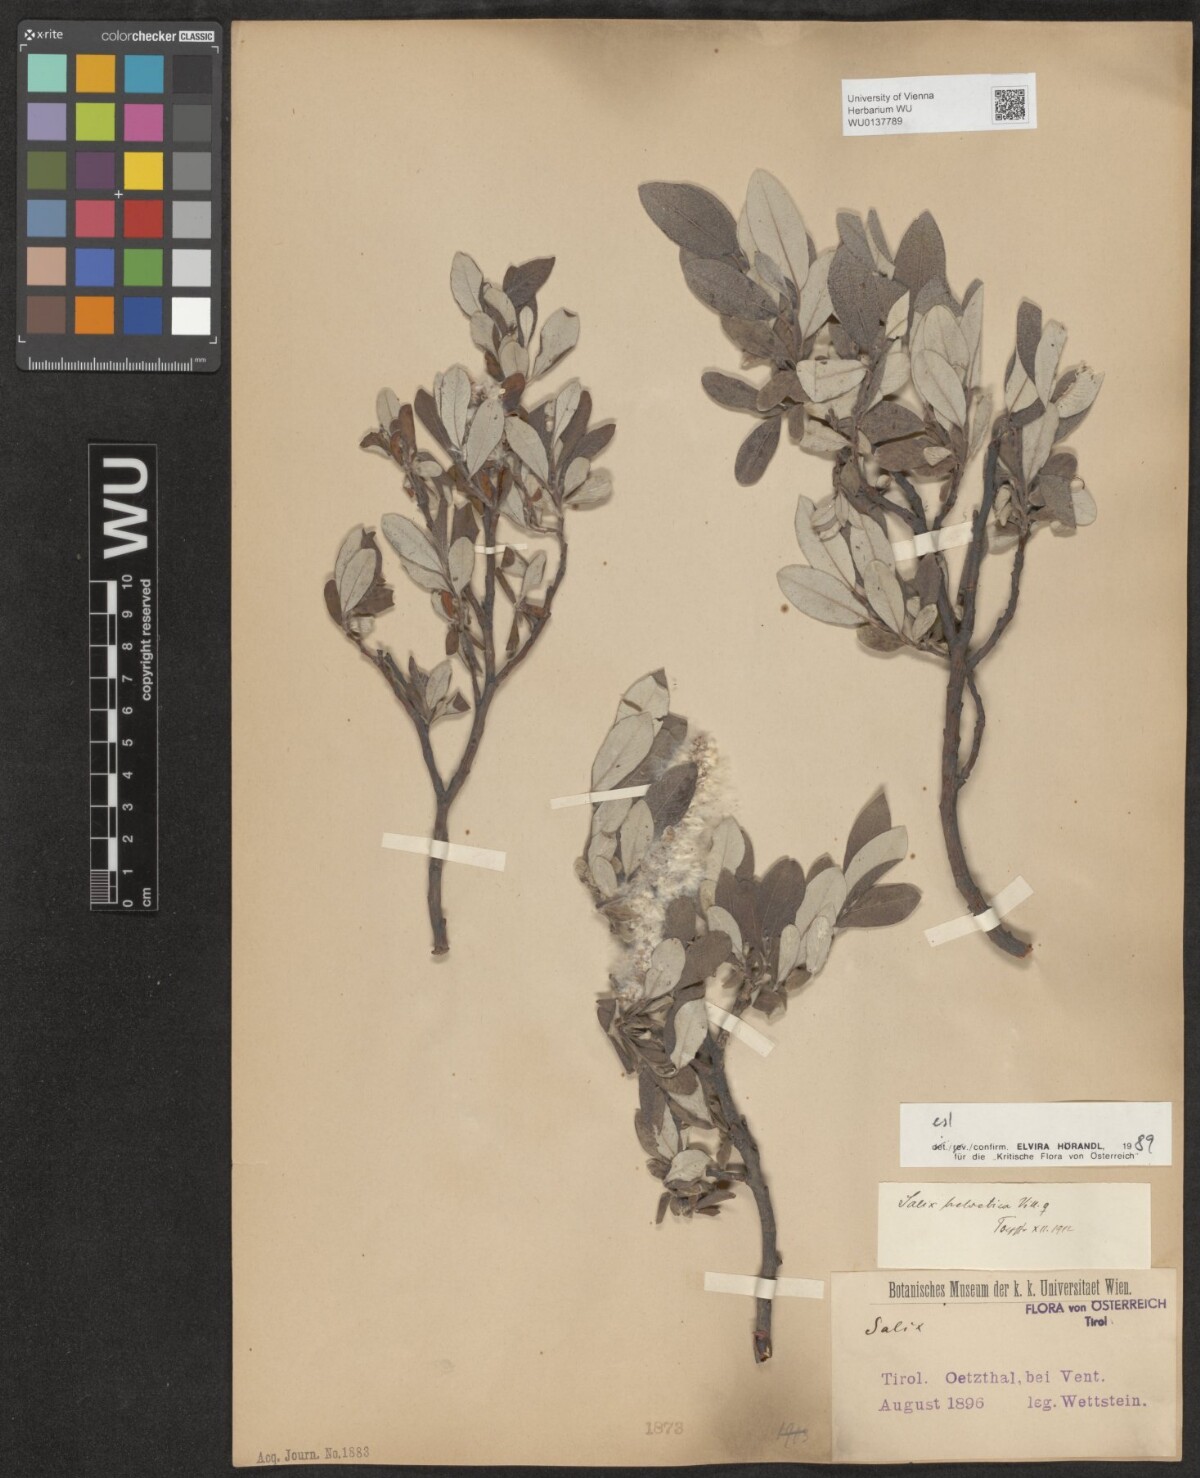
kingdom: Plantae
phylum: Tracheophyta
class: Magnoliopsida
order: Malpighiales
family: Salicaceae
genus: Salix
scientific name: Salix helvetica
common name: Swiss willow
